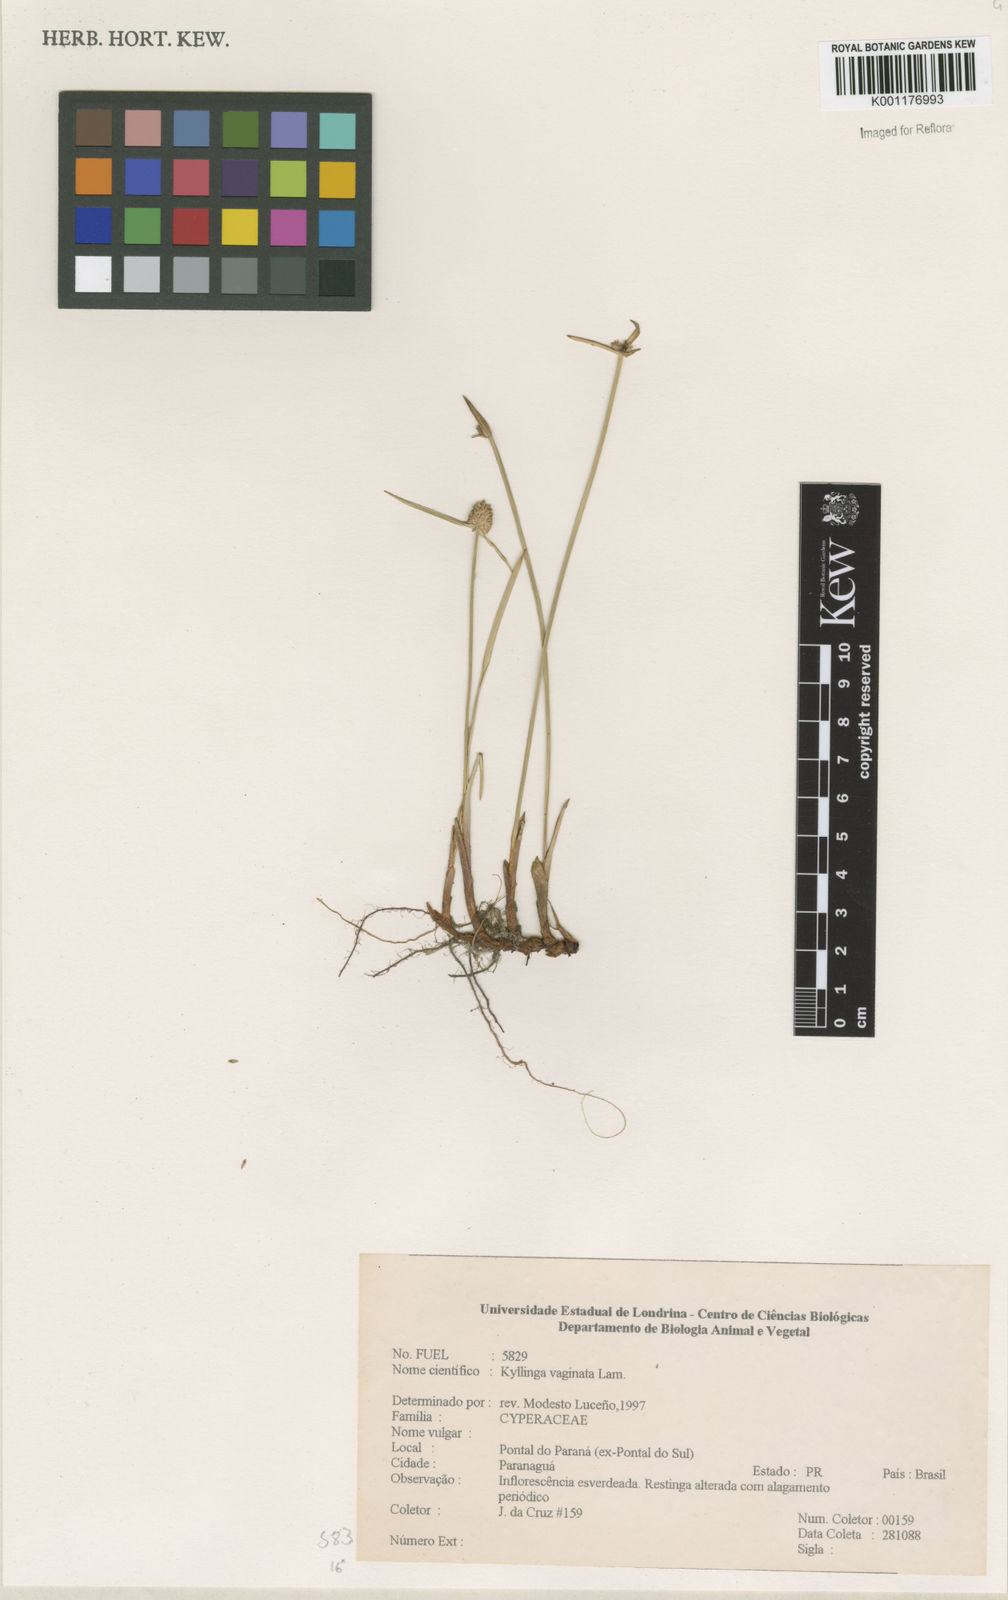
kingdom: Plantae
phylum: Tracheophyta
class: Liliopsida
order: Poales
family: Cyperaceae
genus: Cyperus
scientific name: Cyperus obtusatus
